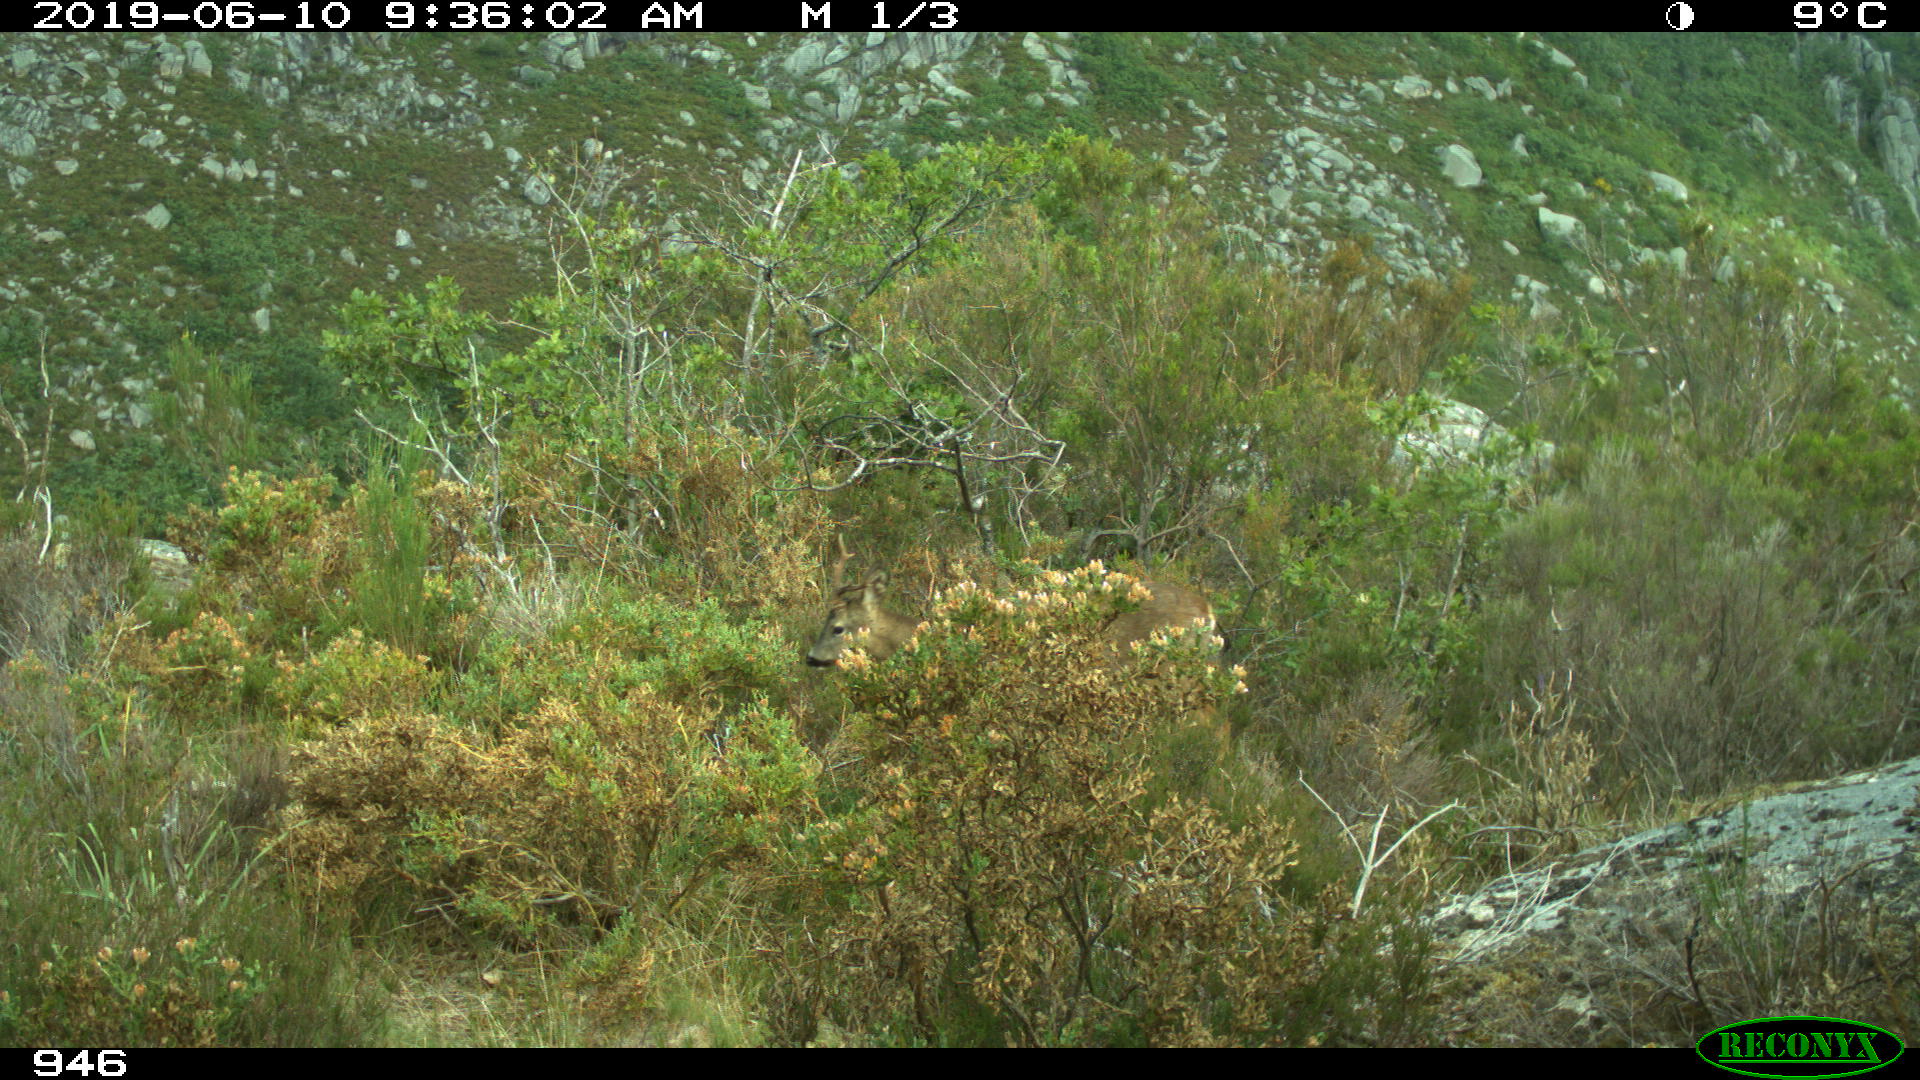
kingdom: Animalia
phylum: Chordata
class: Mammalia
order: Artiodactyla
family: Cervidae
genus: Capreolus
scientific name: Capreolus capreolus
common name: Western roe deer
